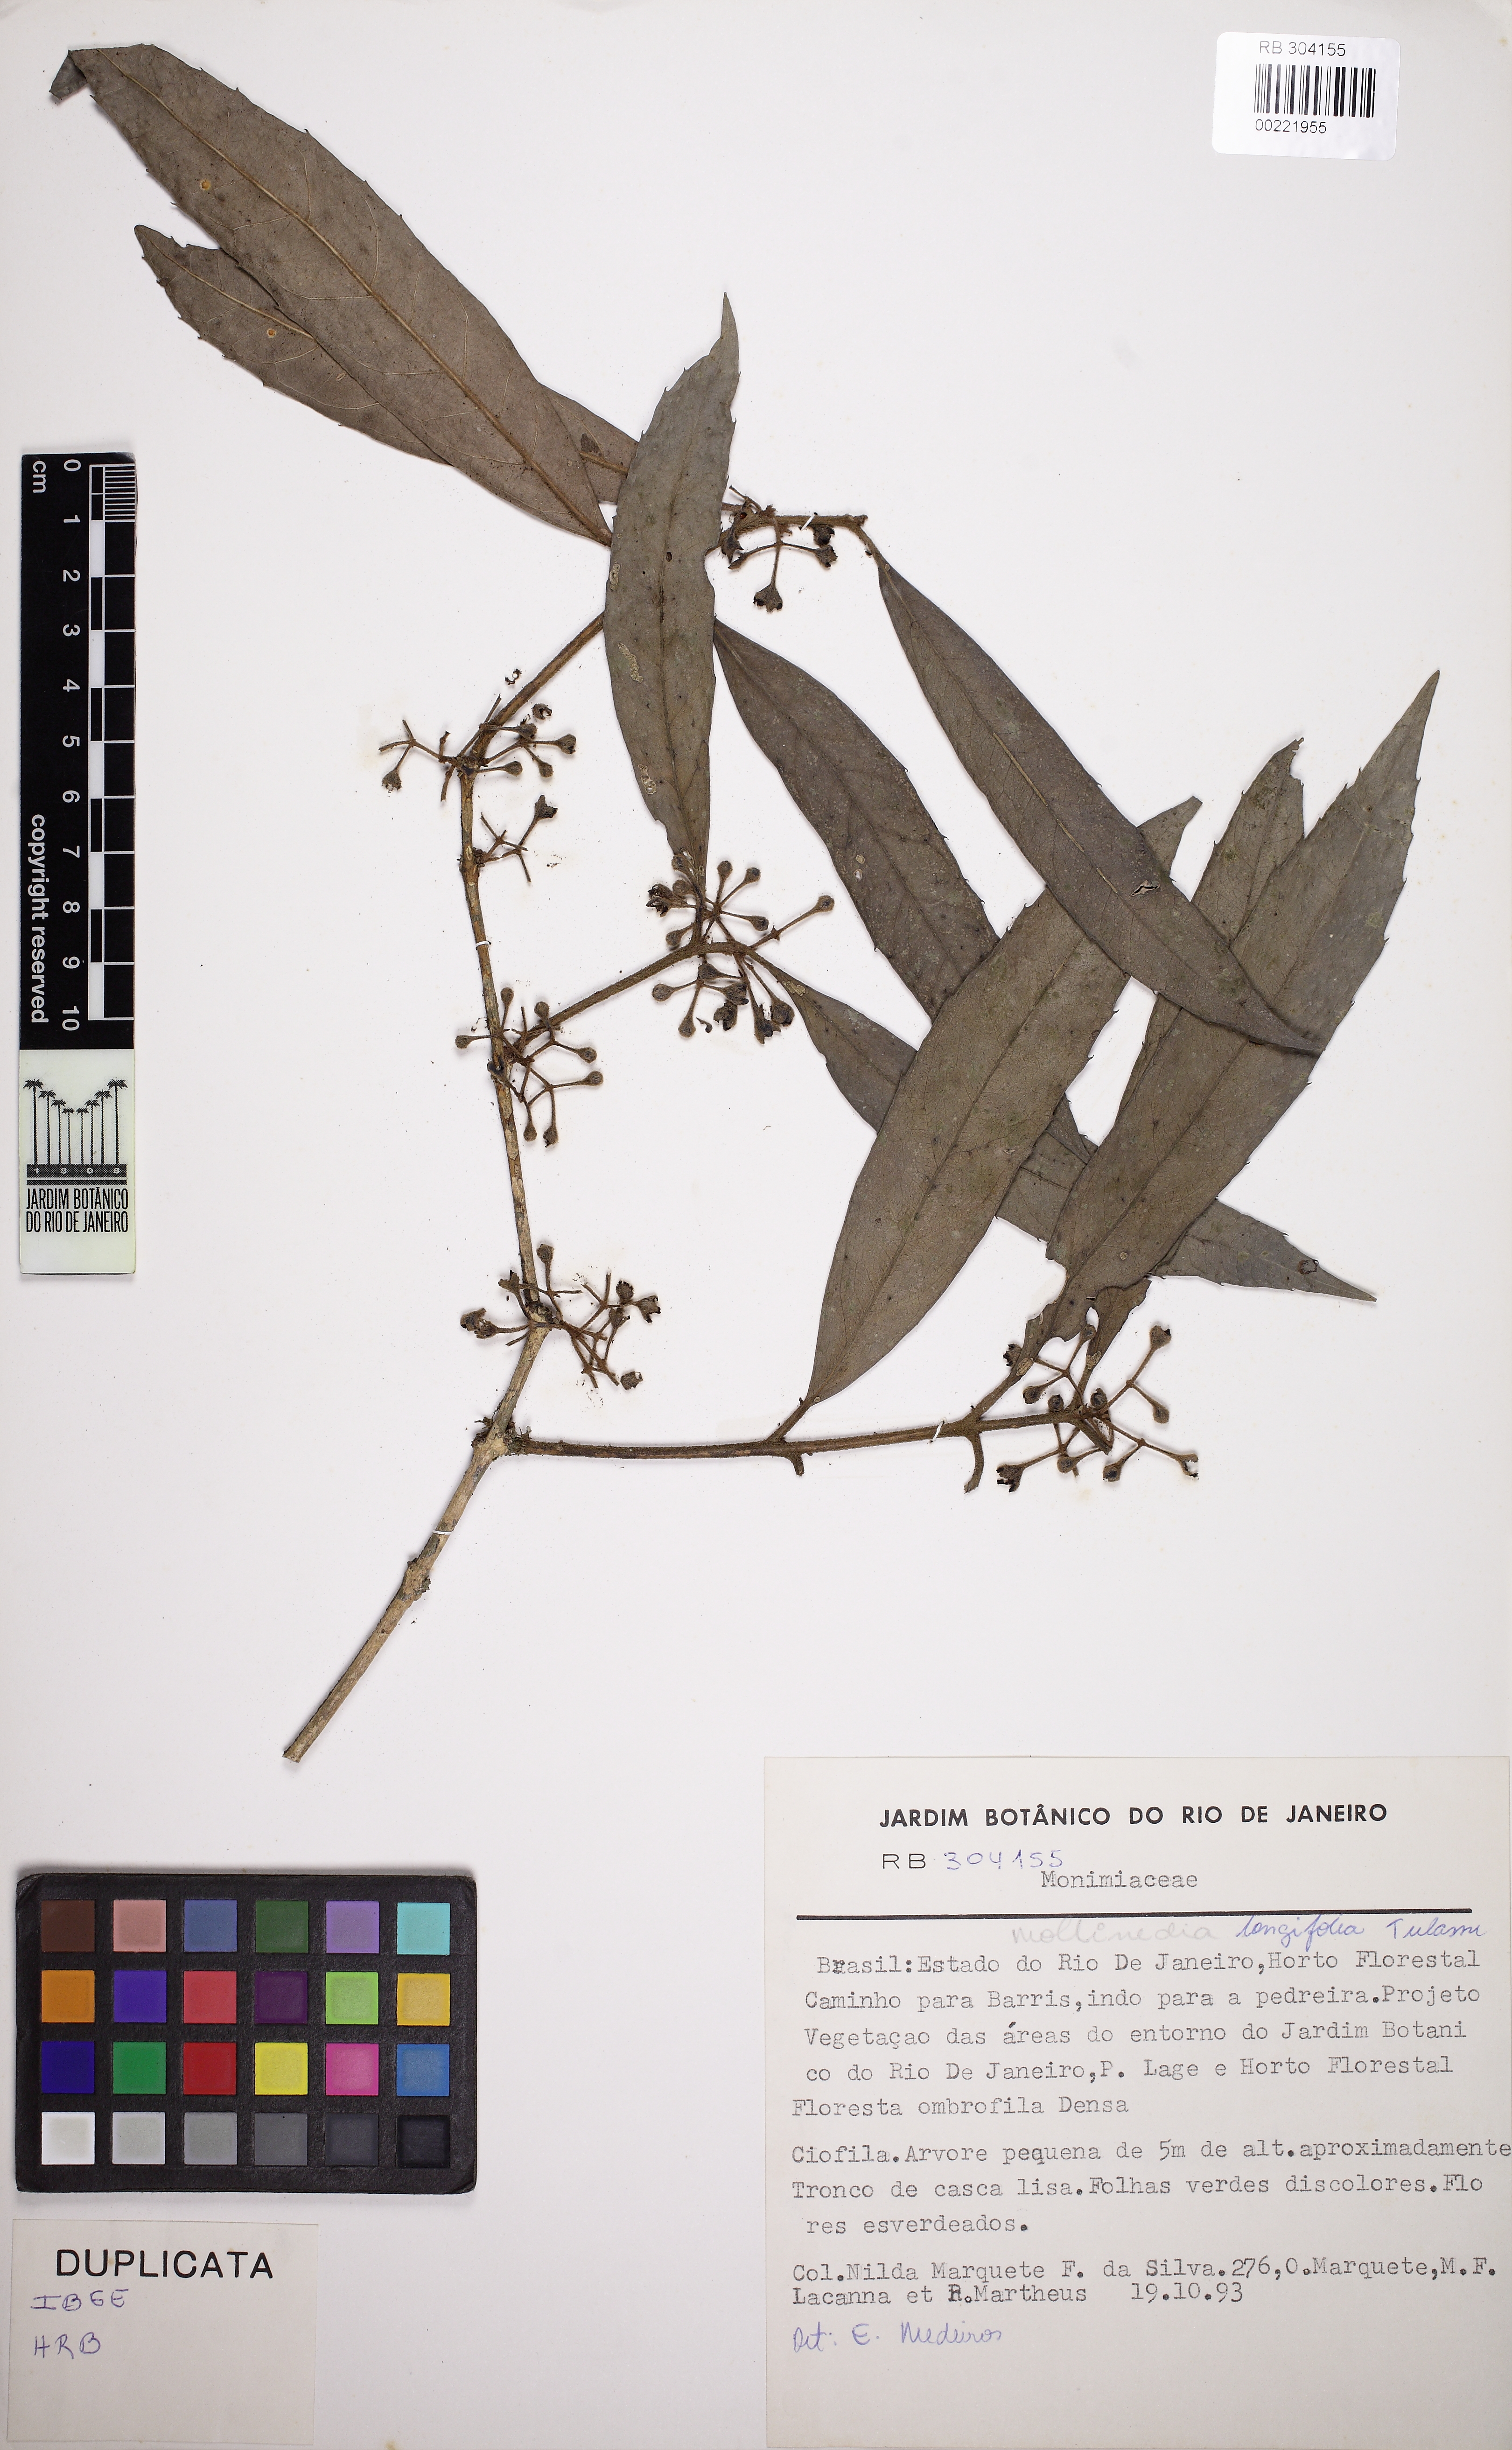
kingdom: Plantae
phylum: Tracheophyta
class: Magnoliopsida
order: Laurales
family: Monimiaceae
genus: Mollinedia
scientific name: Mollinedia longifolia
